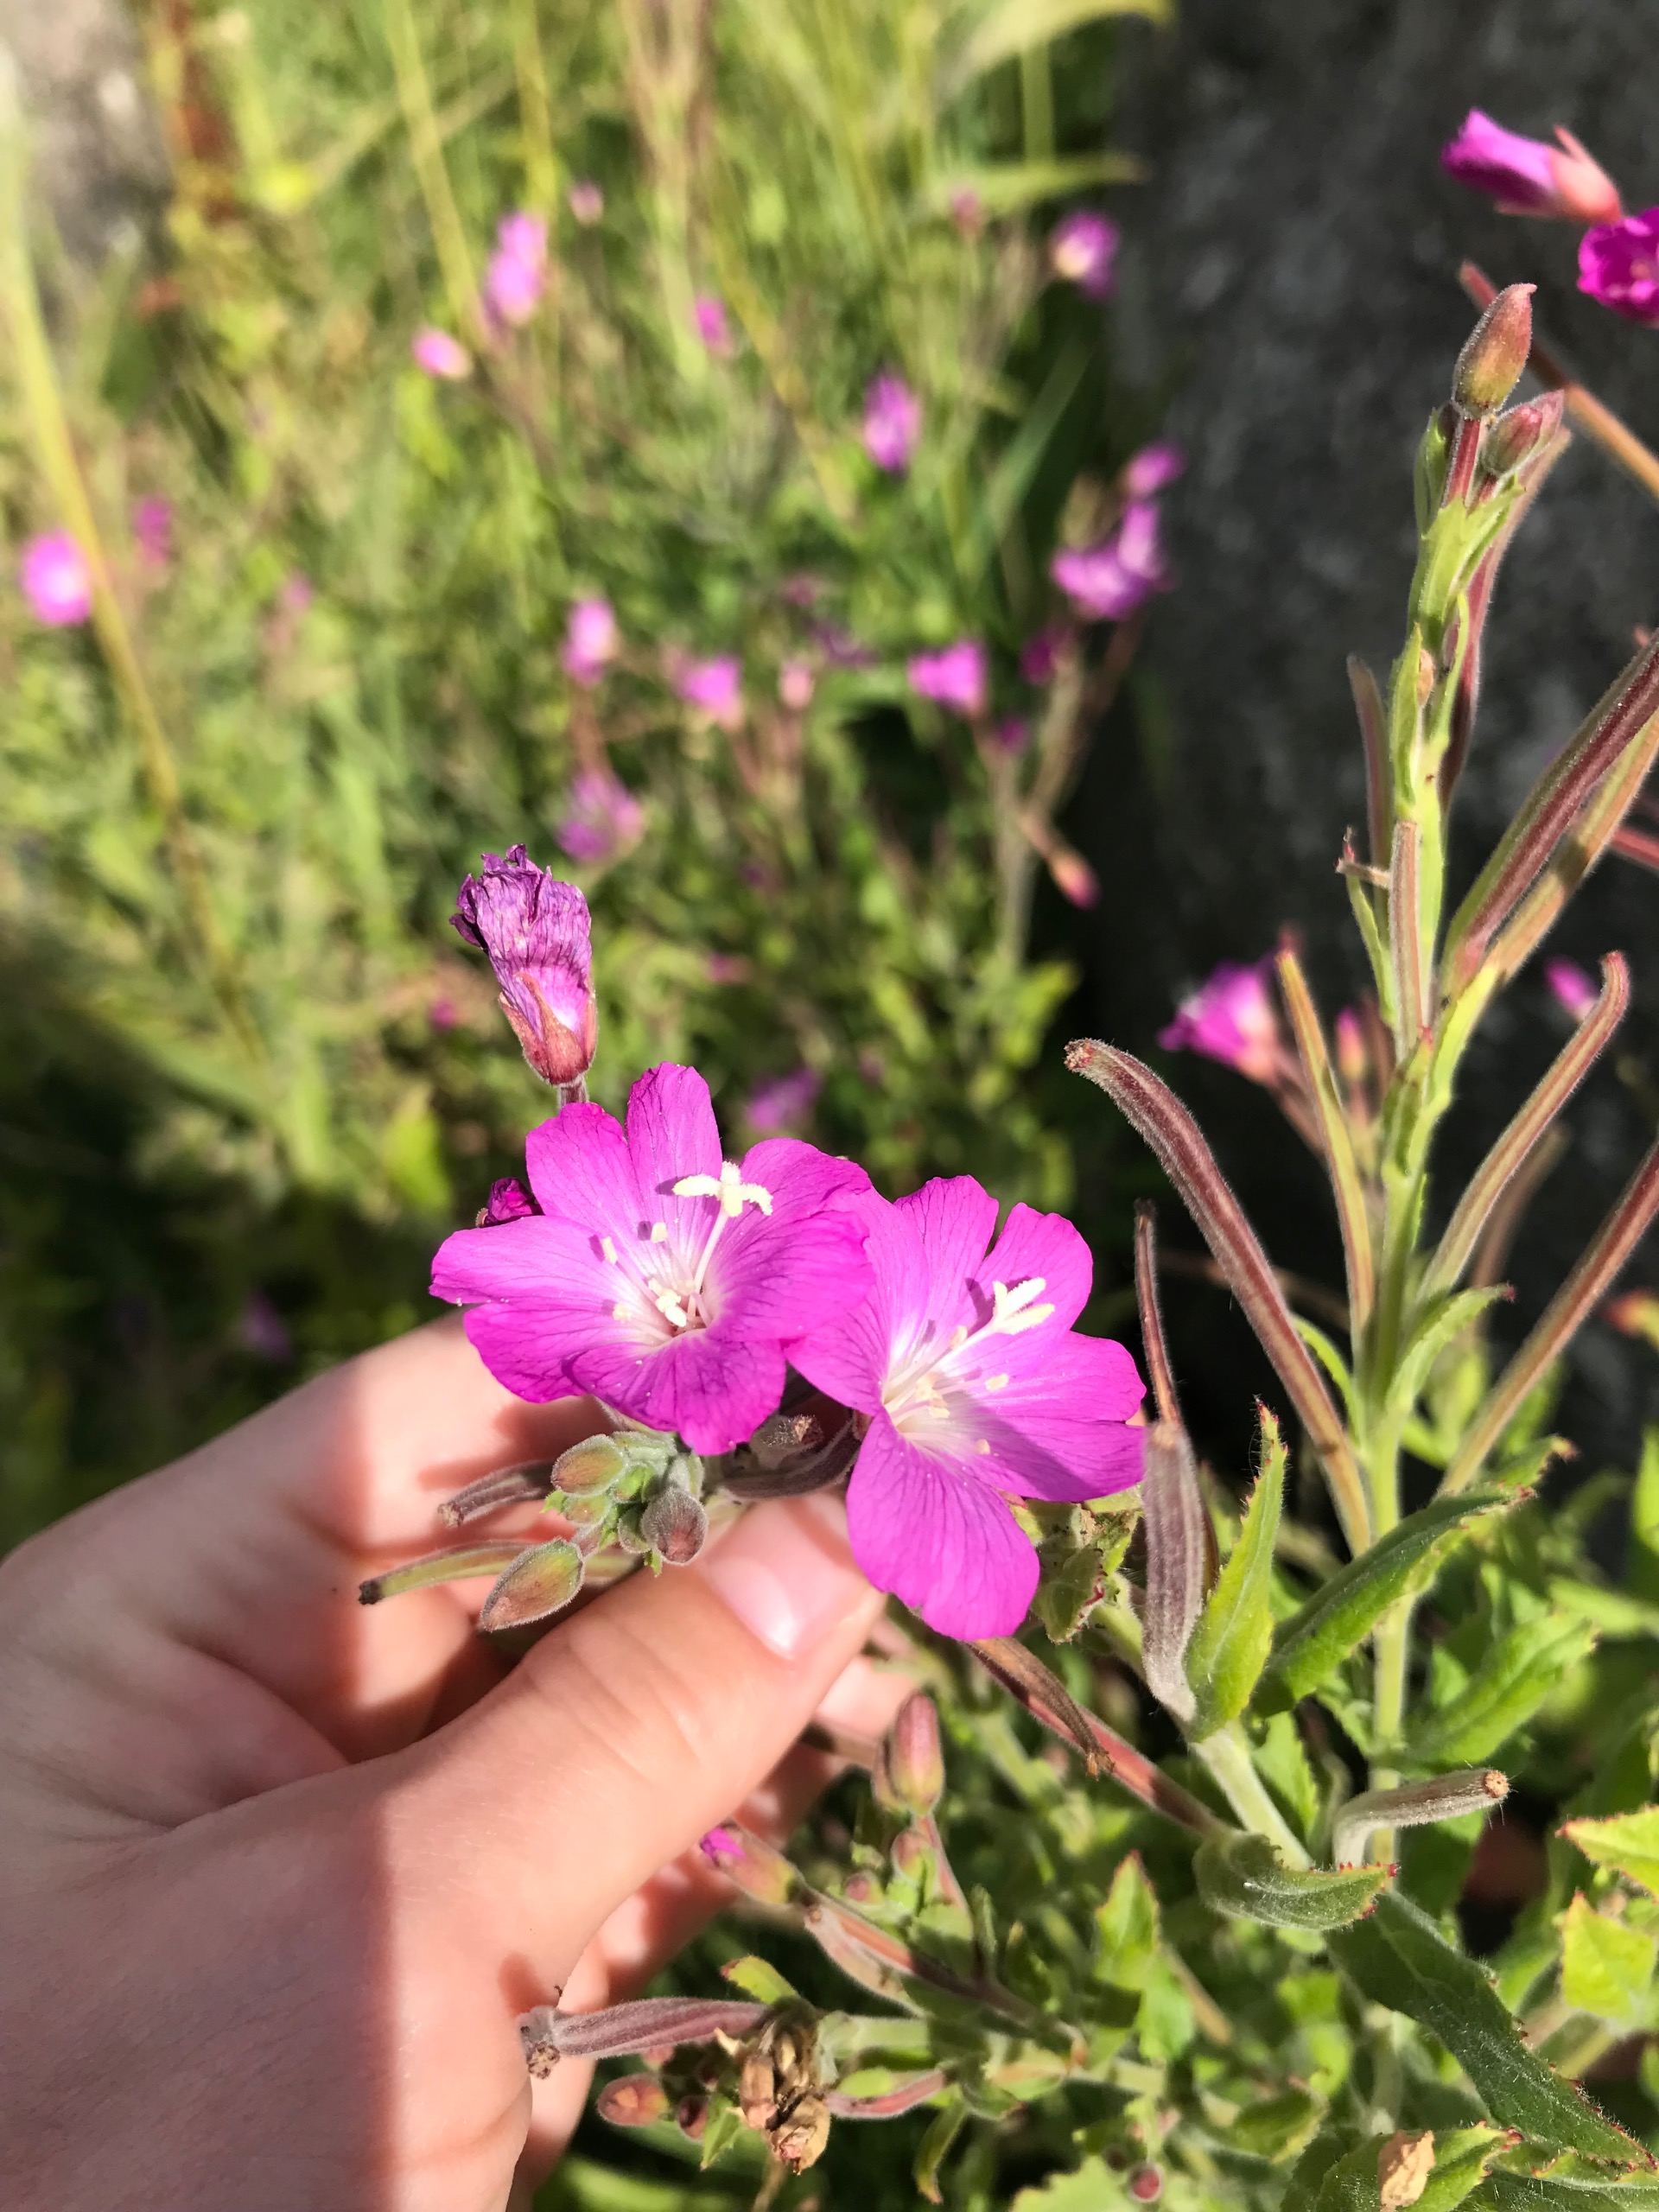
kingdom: Plantae
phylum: Tracheophyta
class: Magnoliopsida
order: Myrtales
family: Onagraceae
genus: Epilobium
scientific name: Epilobium hirsutum
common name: Lådden dueurt
